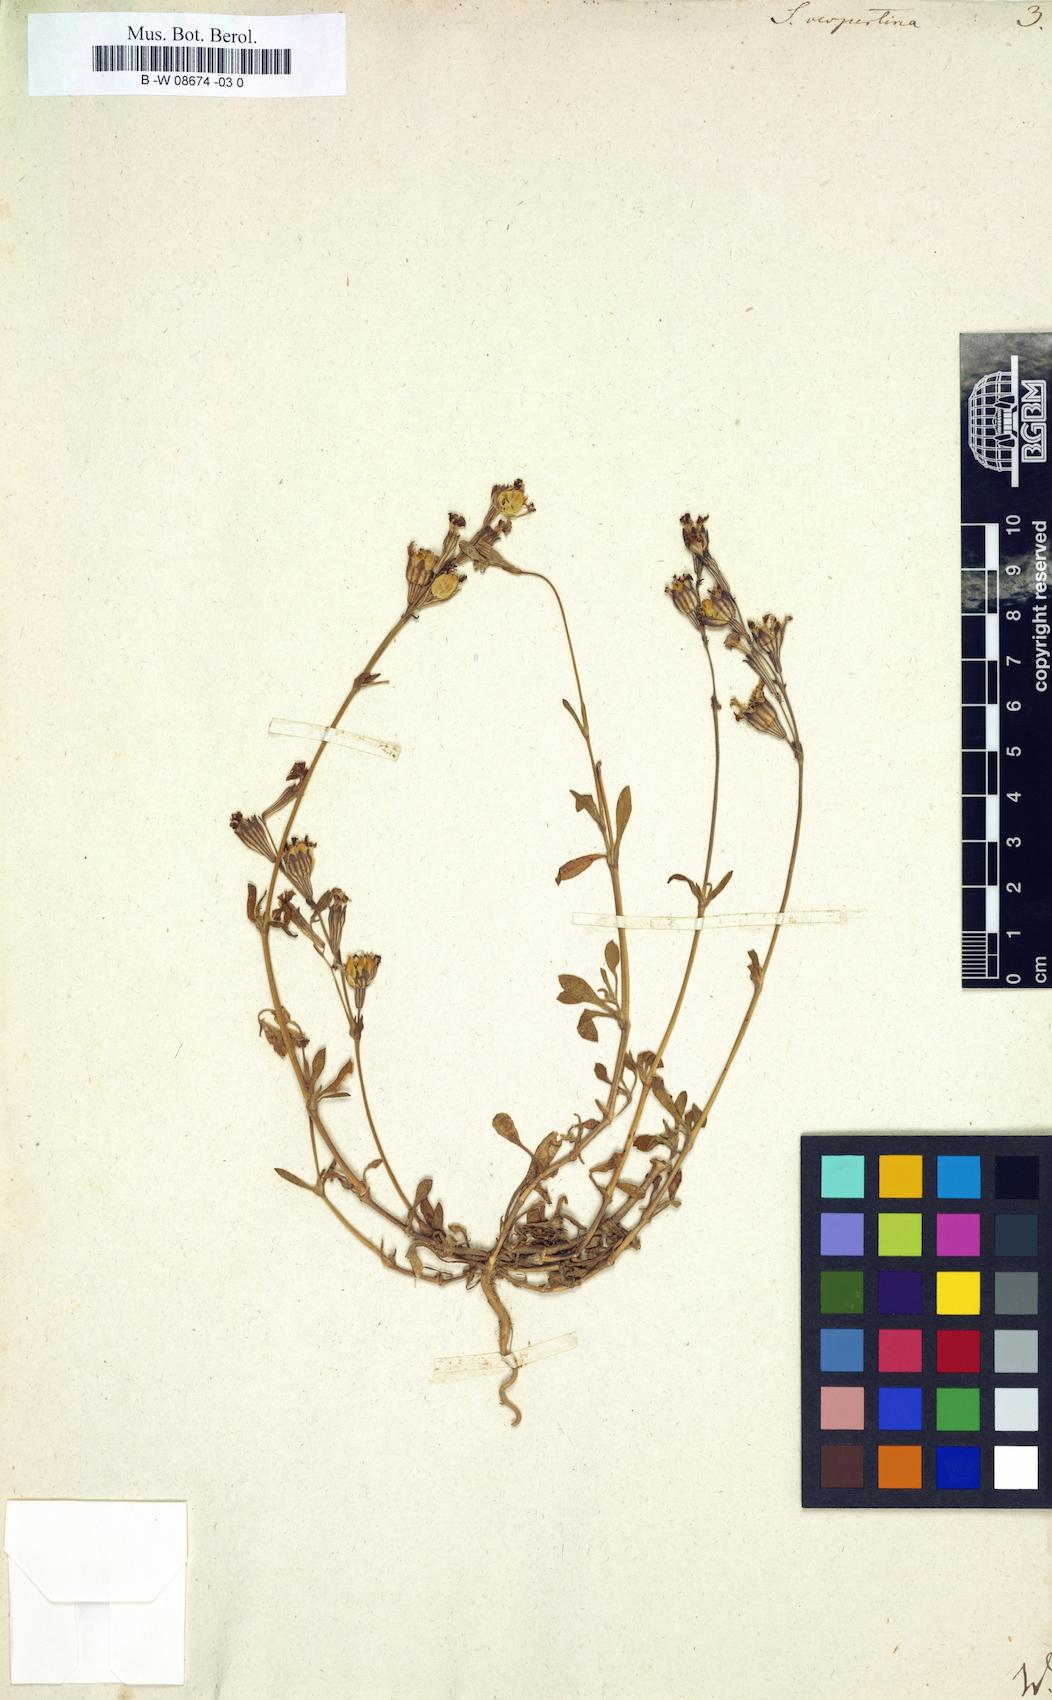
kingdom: Plantae
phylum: Tracheophyta
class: Magnoliopsida
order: Caryophyllales
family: Caryophyllaceae
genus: Silene
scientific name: Silene bellidifolia
